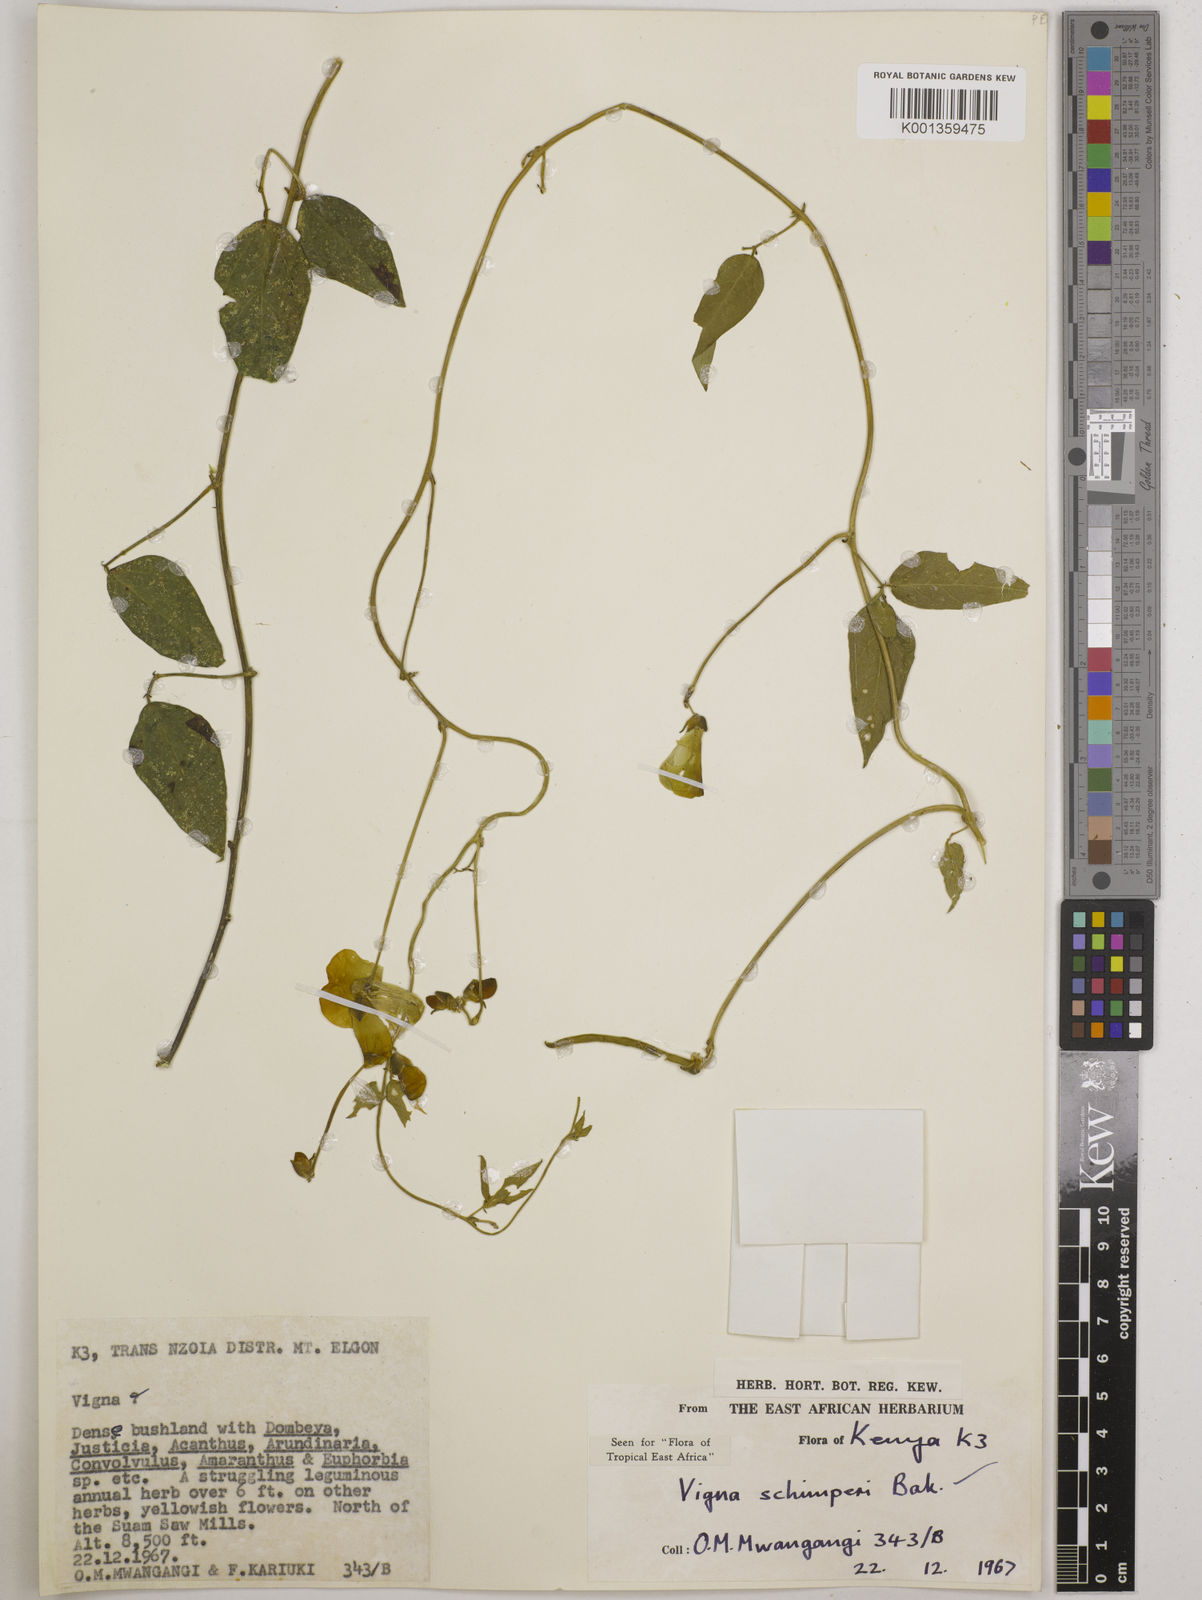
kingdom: Plantae
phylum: Tracheophyta
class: Magnoliopsida
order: Fabales
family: Fabaceae
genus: Vigna
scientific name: Vigna schimperi
